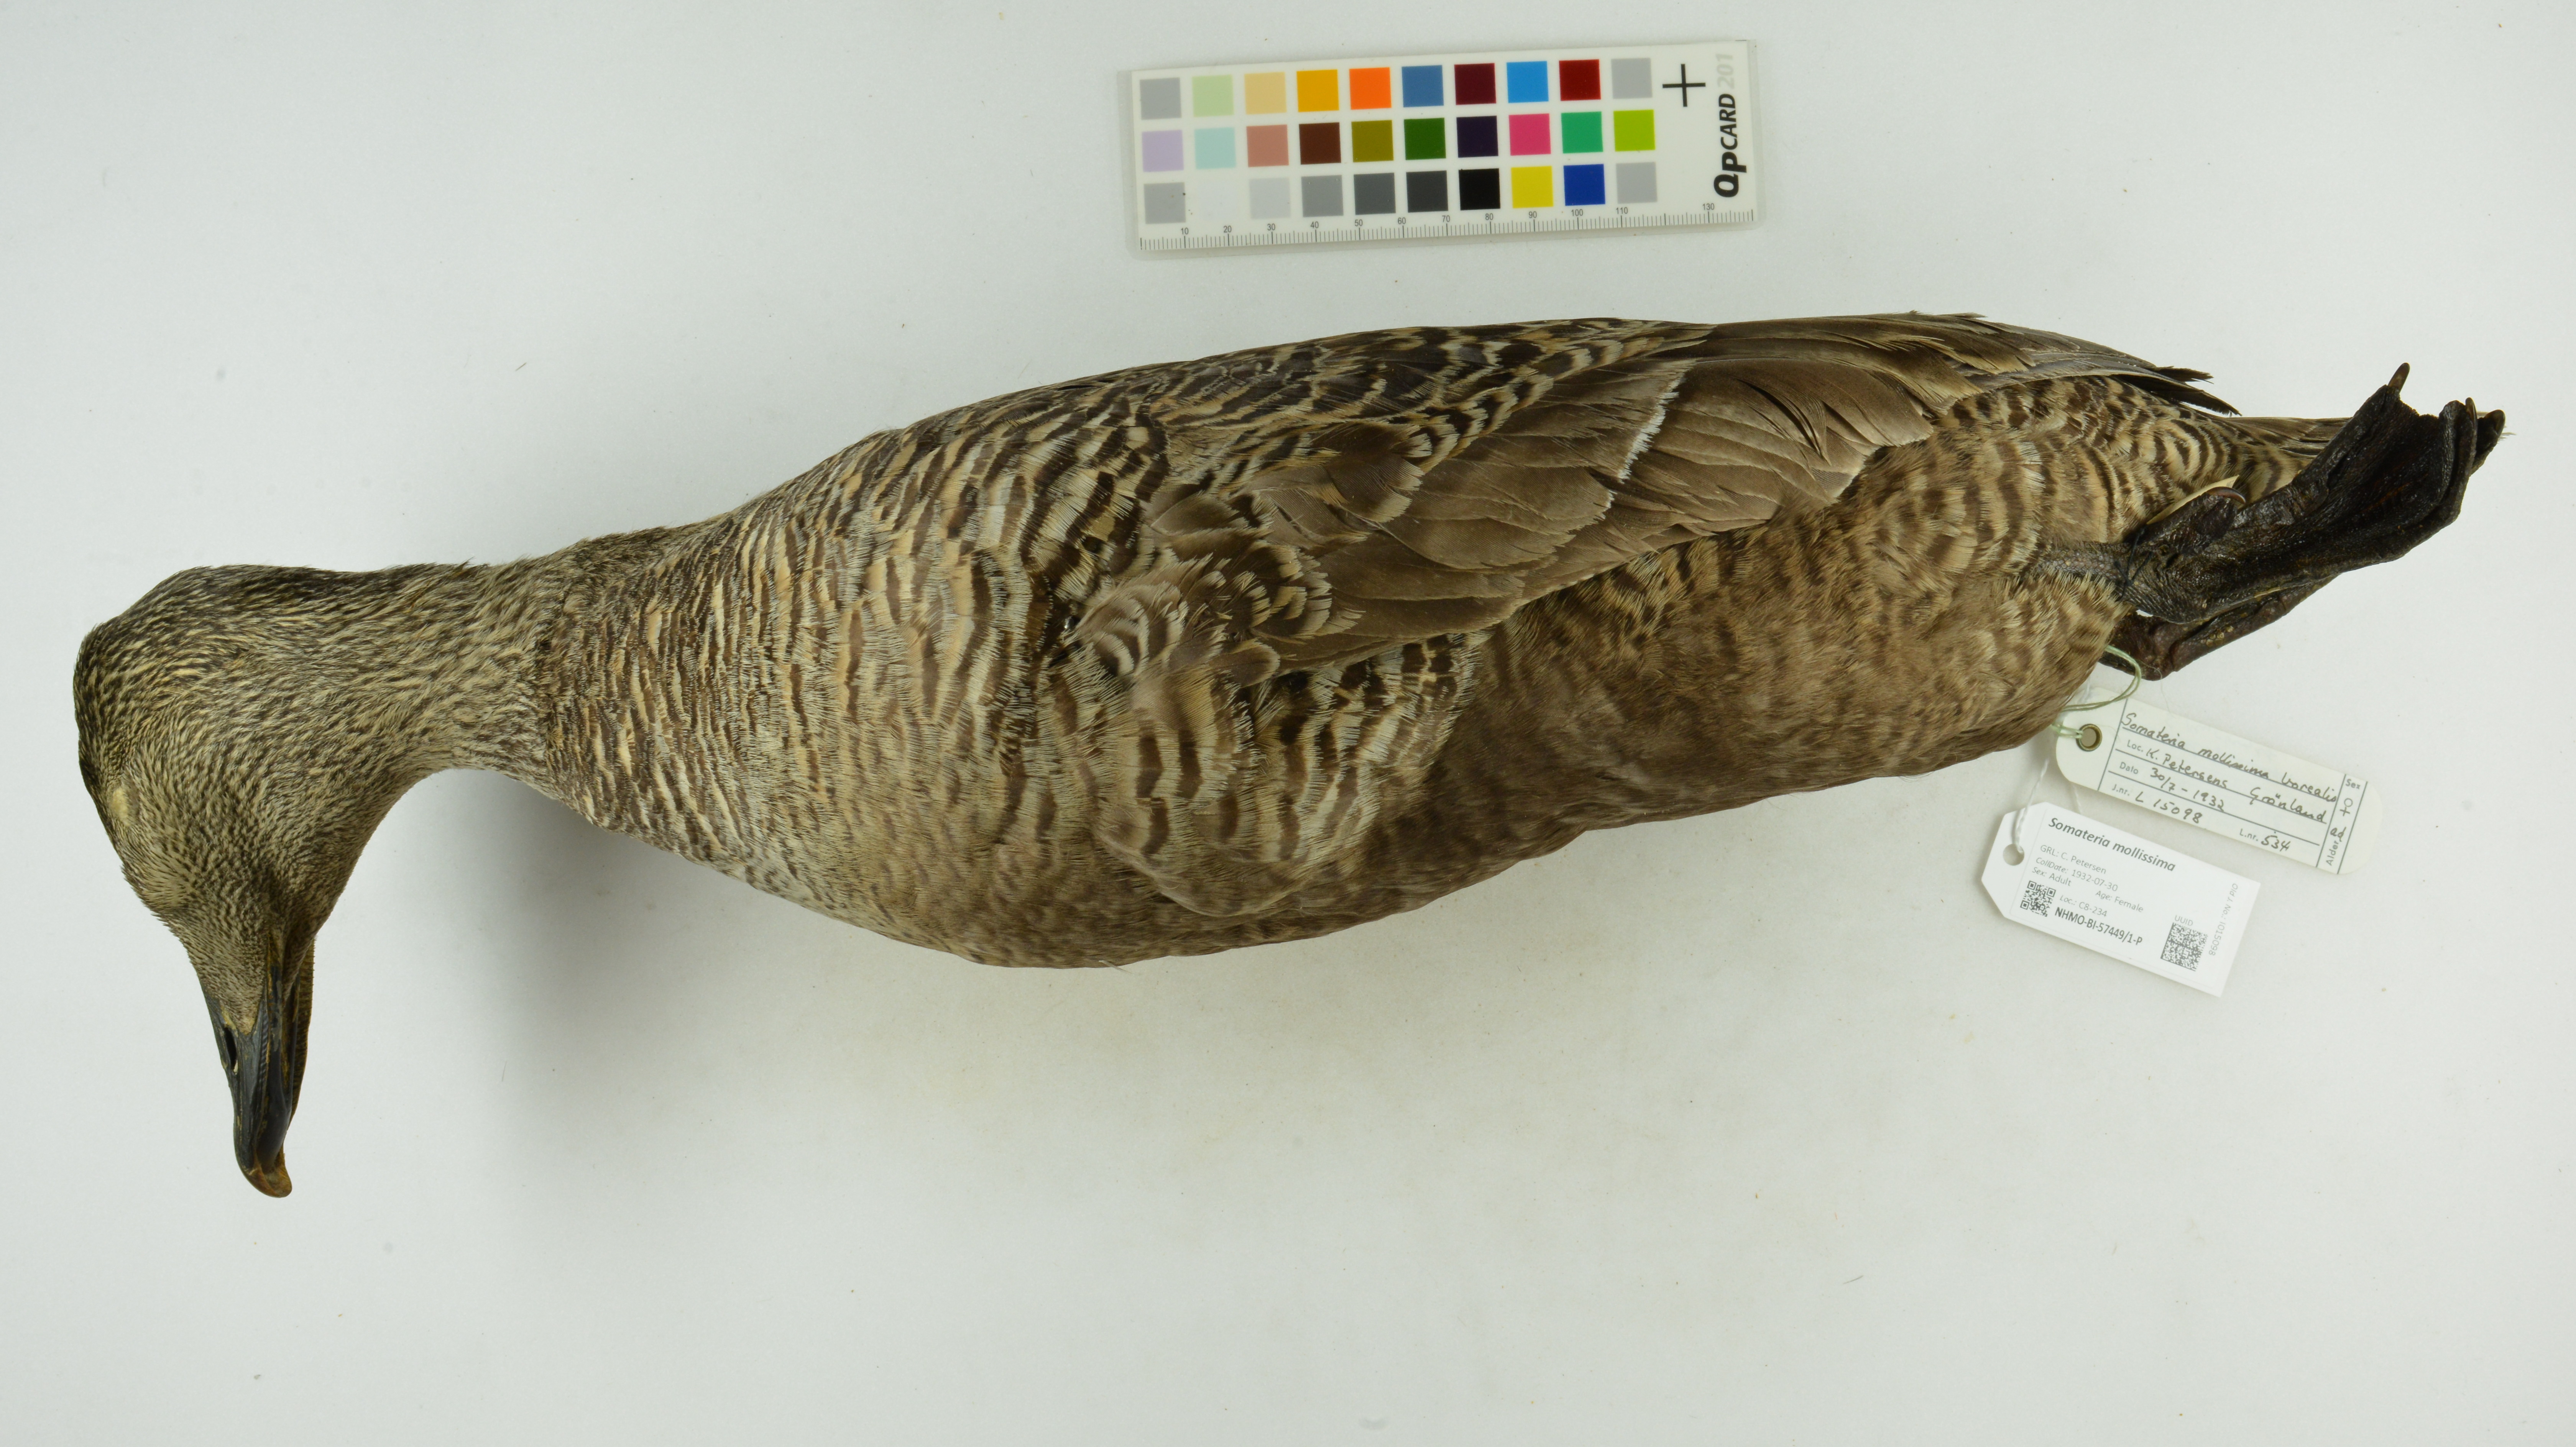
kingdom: Animalia
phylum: Chordata
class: Aves
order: Anseriformes
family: Anatidae
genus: Somateria
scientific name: Somateria mollissima
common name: Common eider
